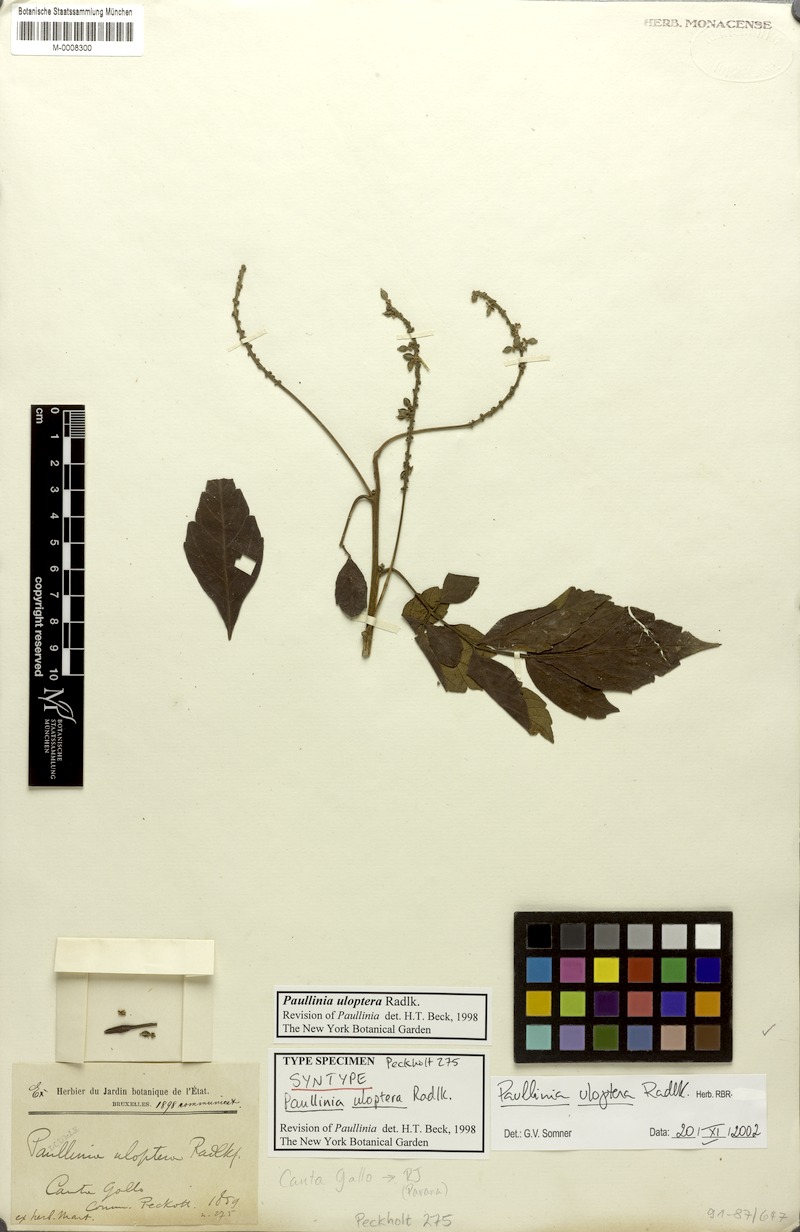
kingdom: Plantae
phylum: Tracheophyta
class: Magnoliopsida
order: Sapindales
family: Sapindaceae
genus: Paullinia
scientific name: Paullinia uloptera
